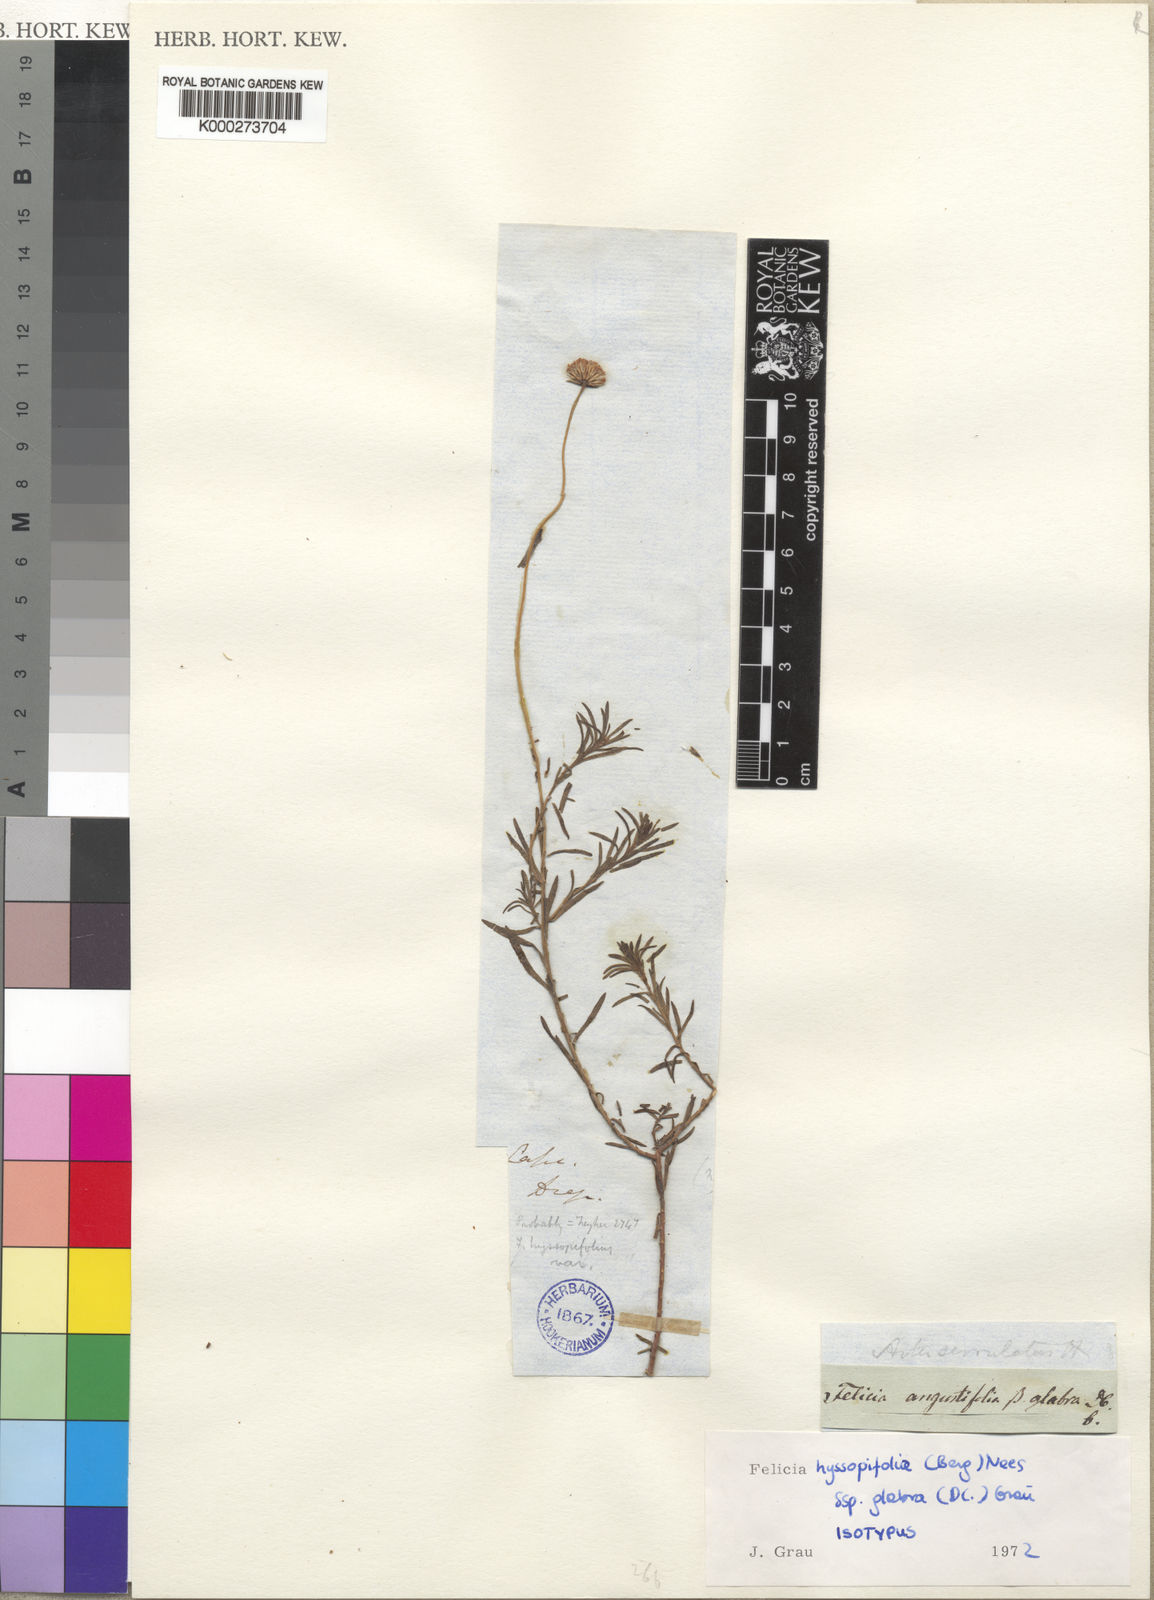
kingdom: Plantae
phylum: Tracheophyta
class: Magnoliopsida
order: Asterales
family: Asteraceae
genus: Felicia
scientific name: Felicia hyssopifolia
